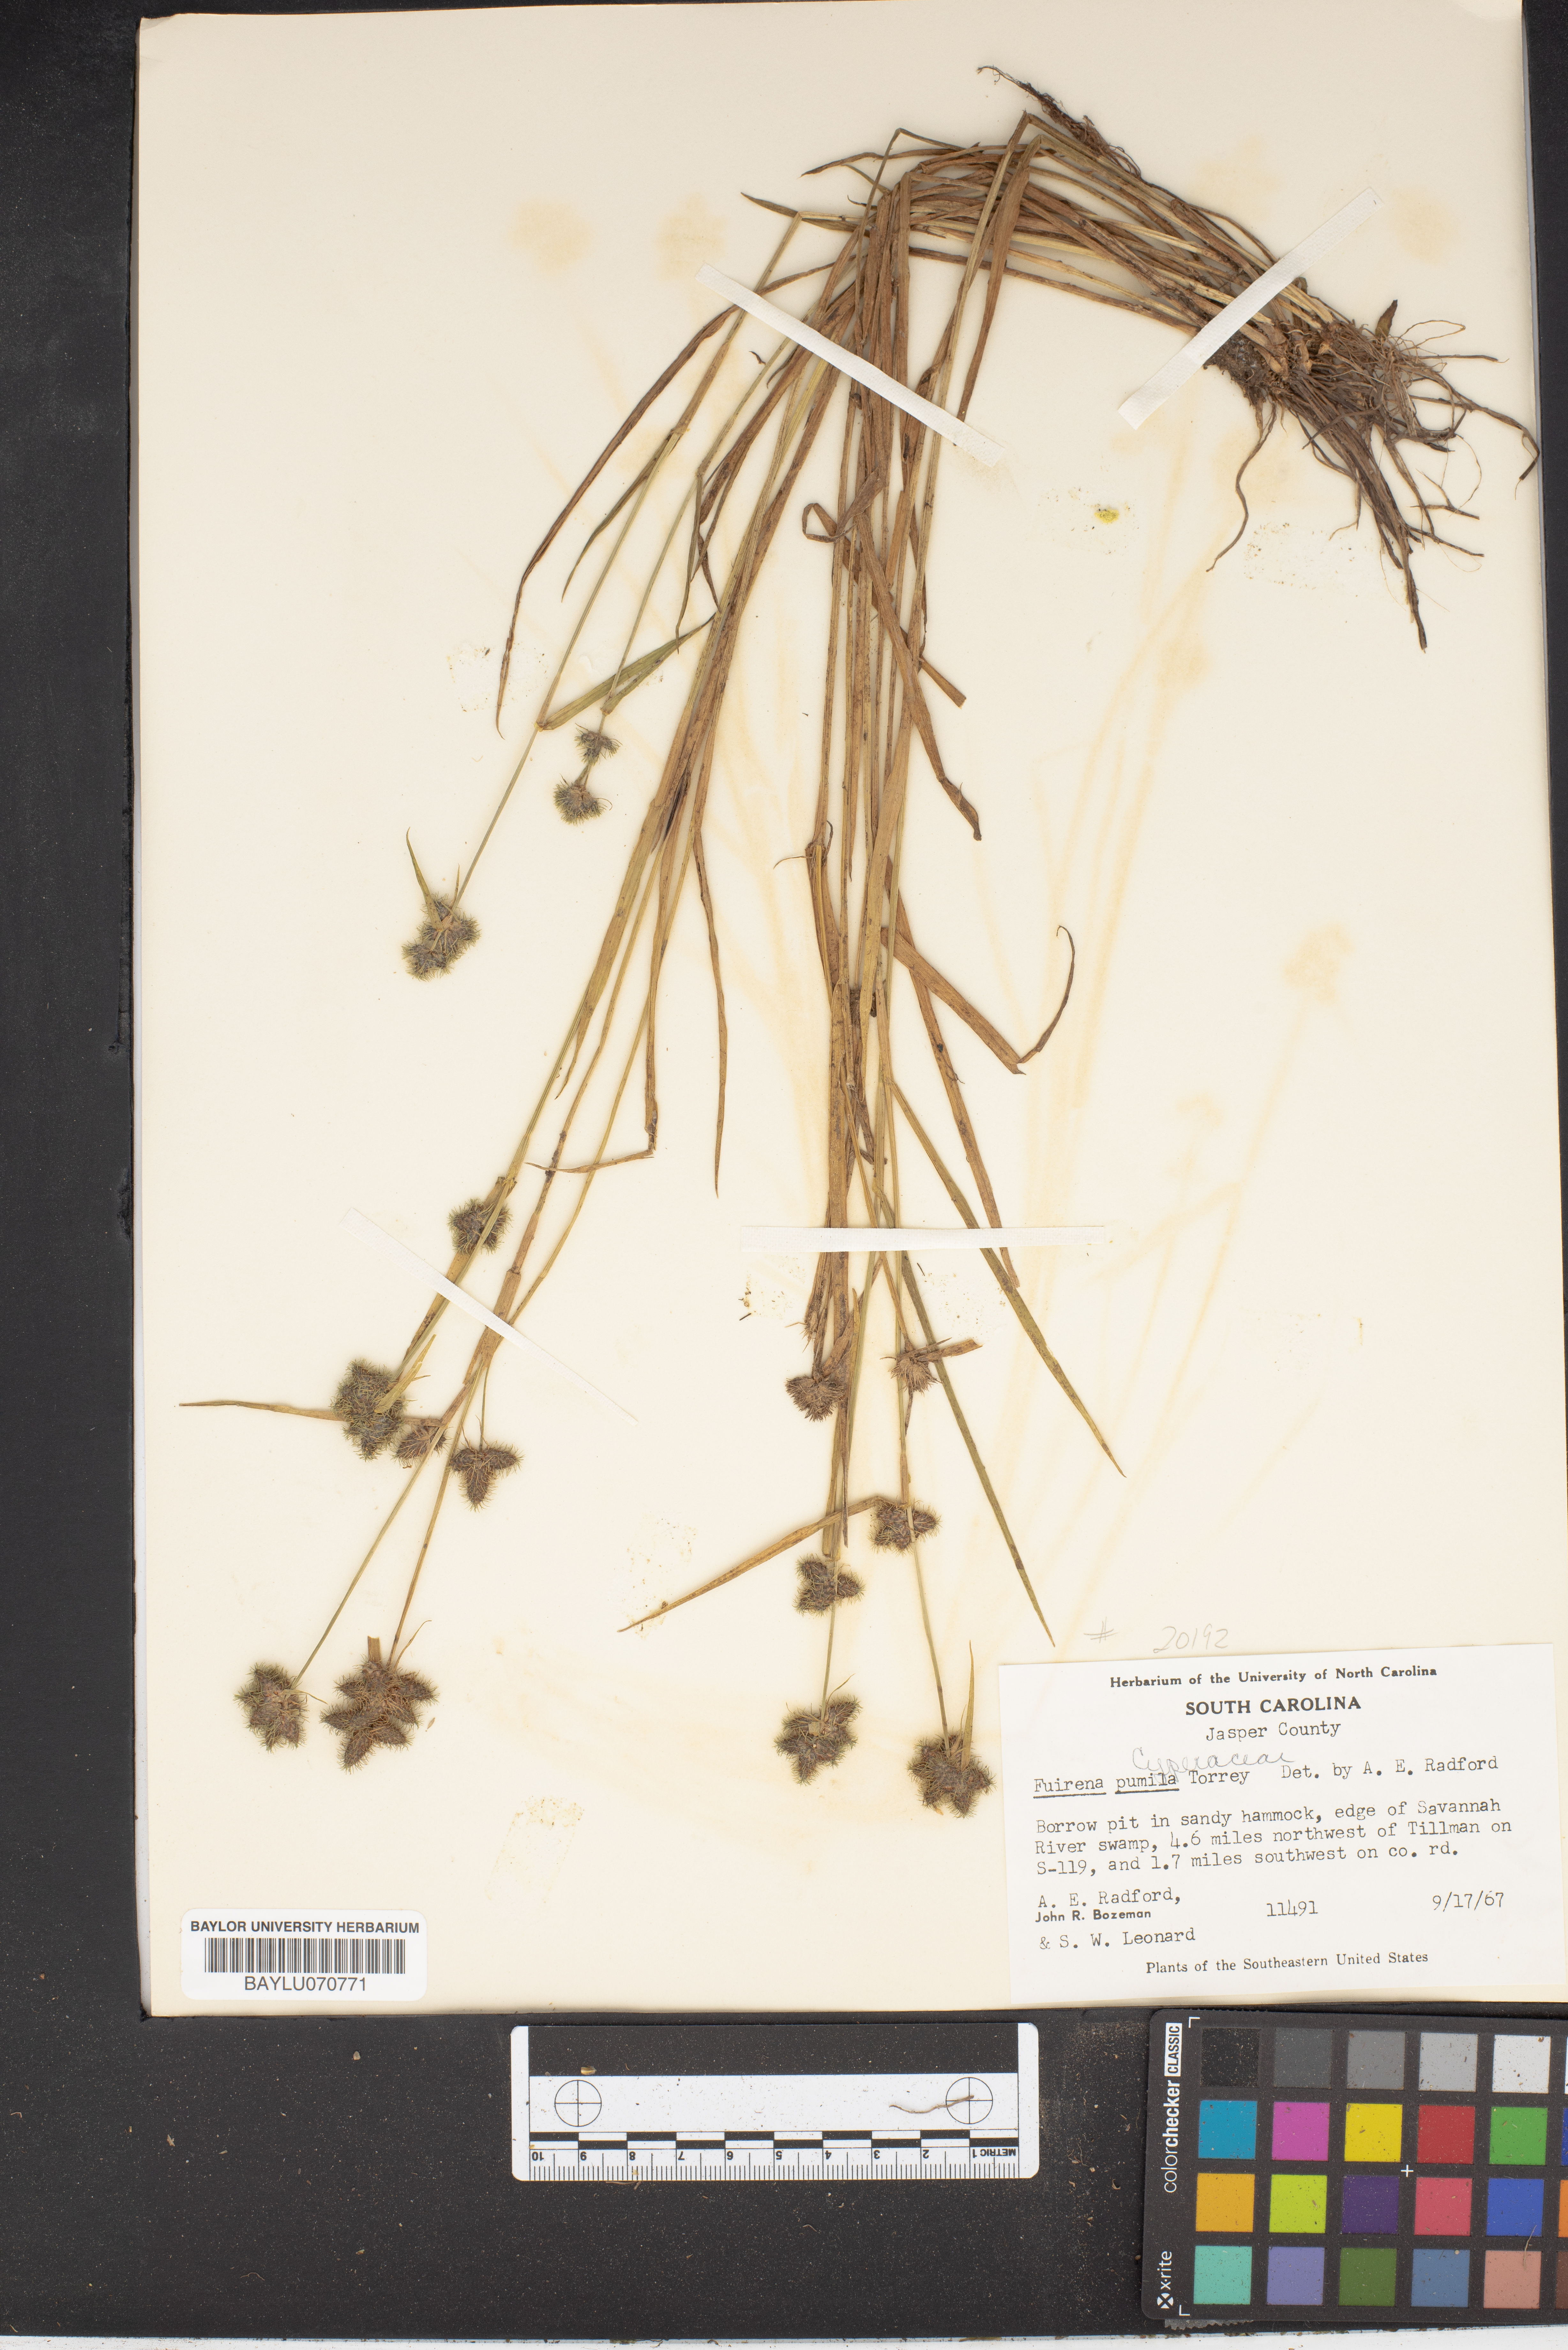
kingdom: Plantae
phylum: Tracheophyta
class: Liliopsida
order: Poales
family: Cyperaceae
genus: Fuirena
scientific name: Fuirena pumila
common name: Dwarf umbrella sedge
